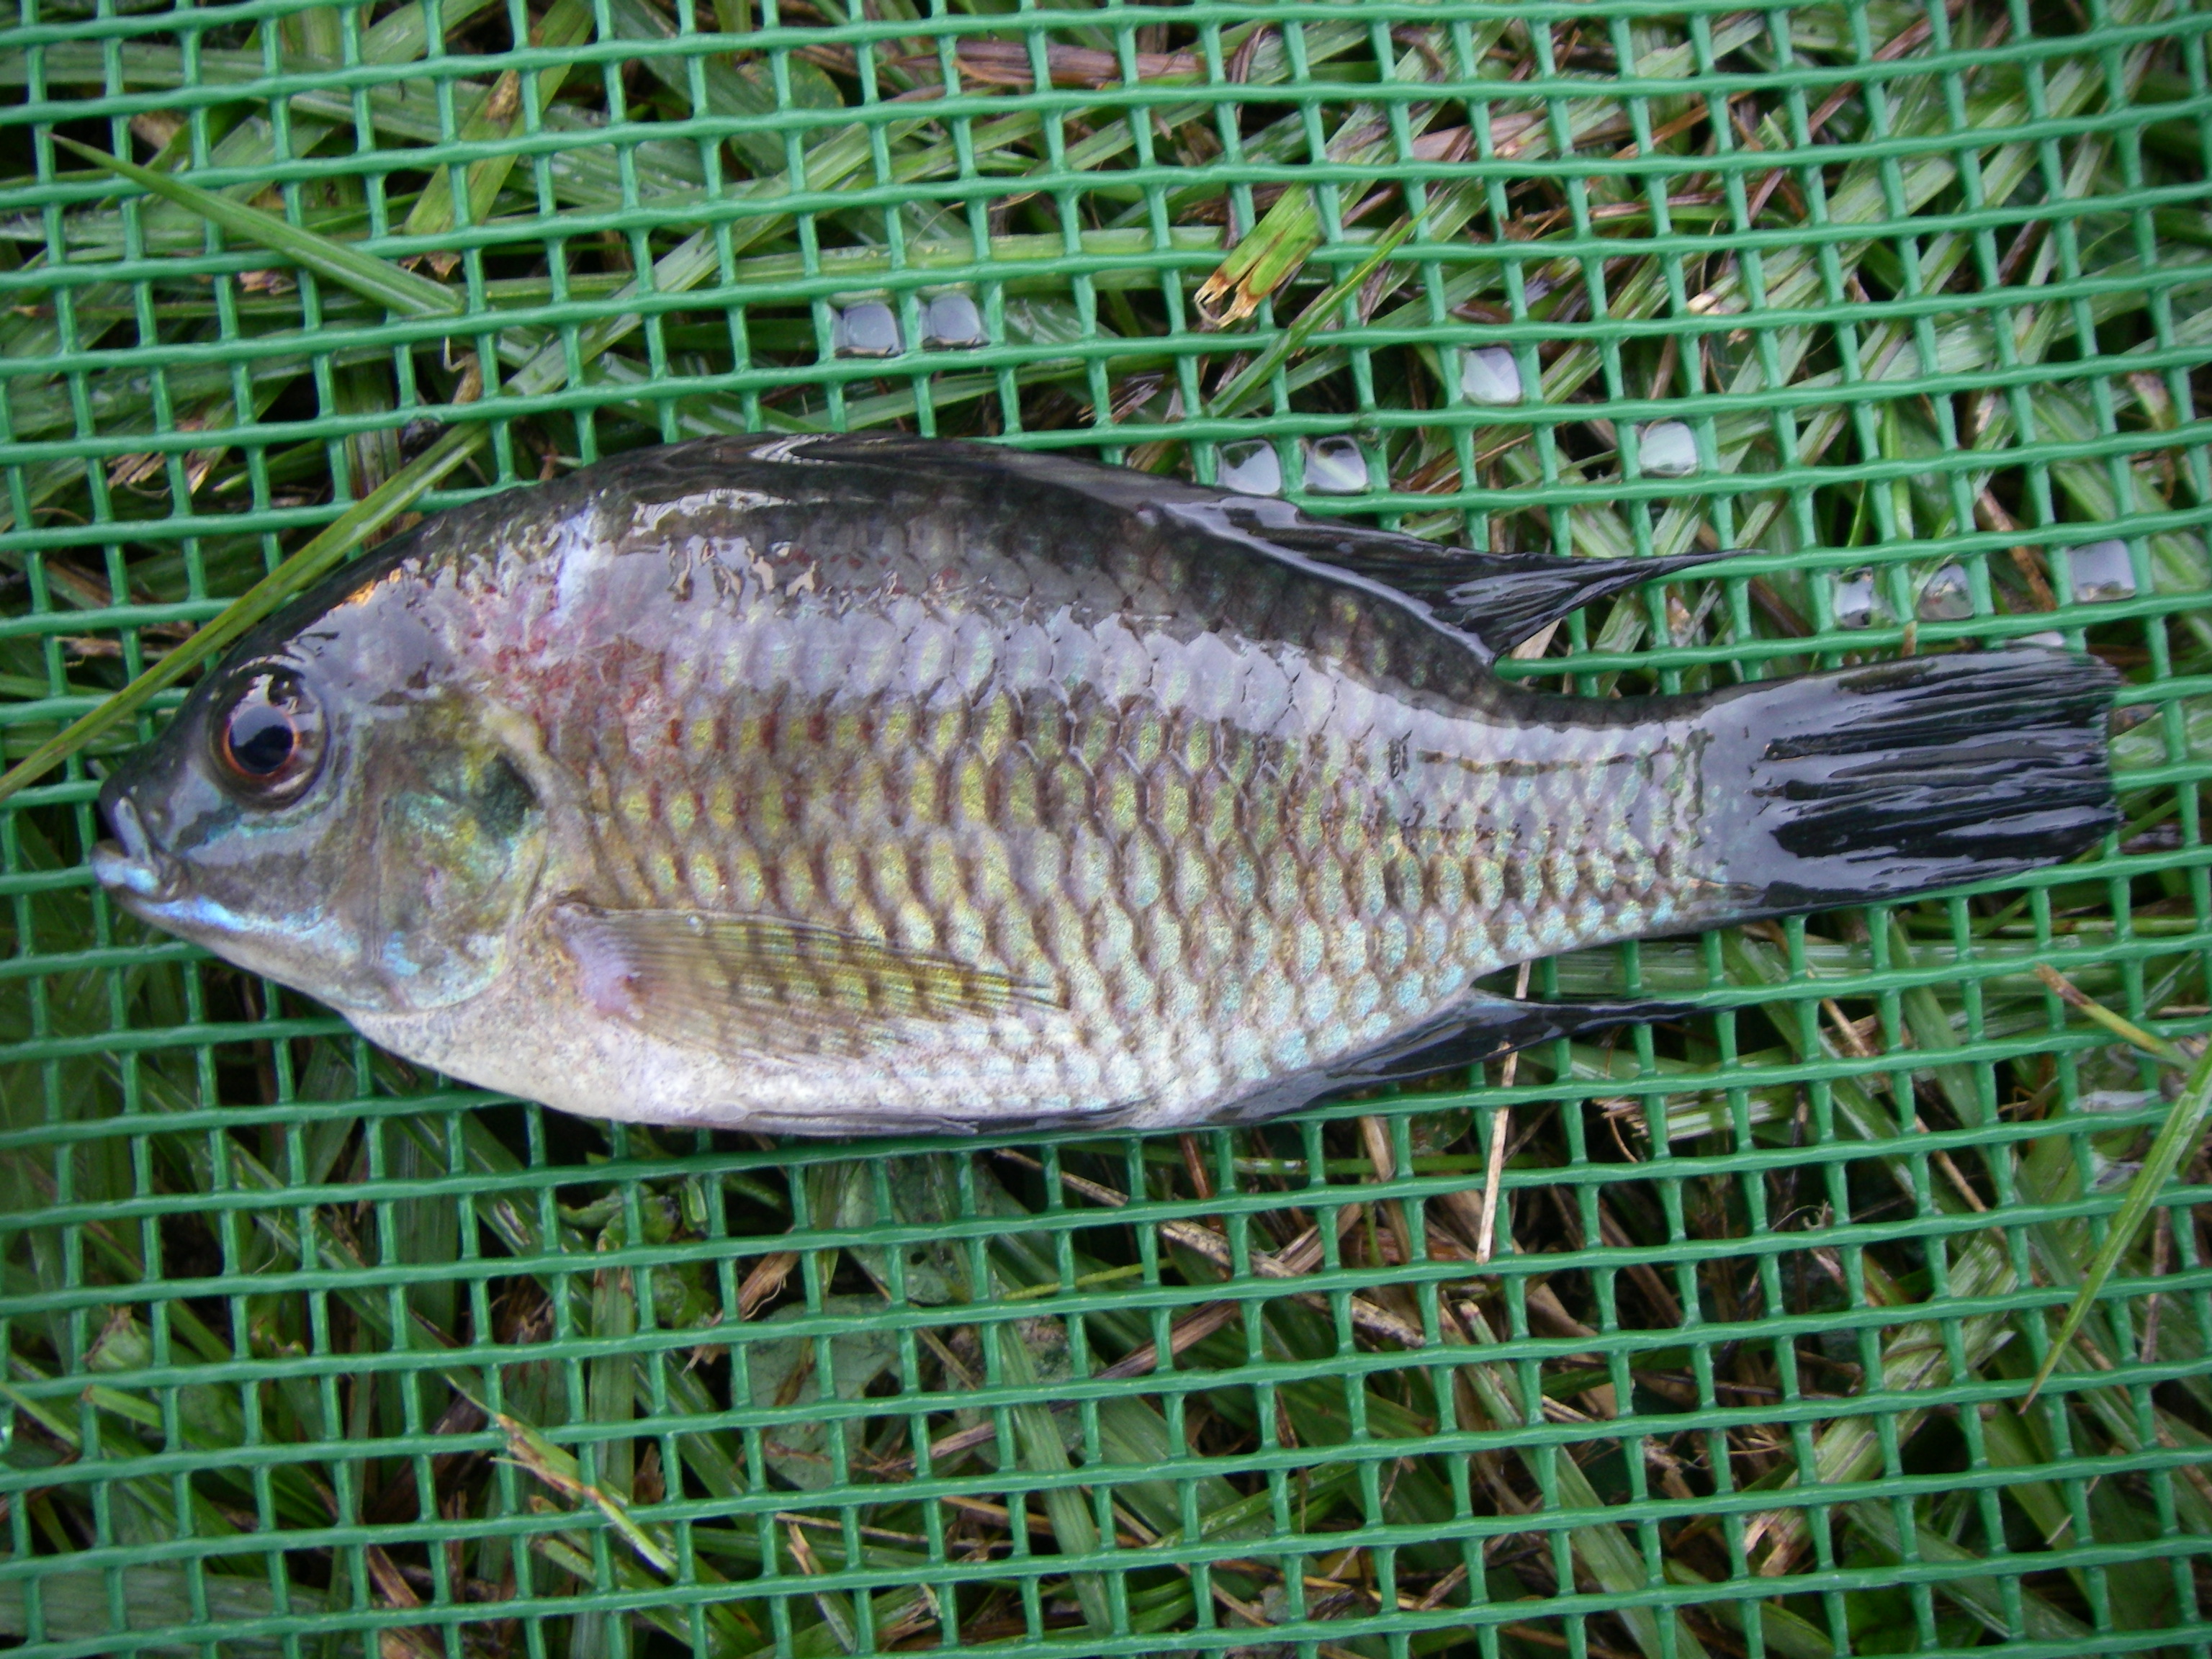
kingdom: Animalia
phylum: Chordata
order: Perciformes
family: Cichlidae
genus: Tilapia
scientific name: Tilapia sparrmanii
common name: Banded tilapia
